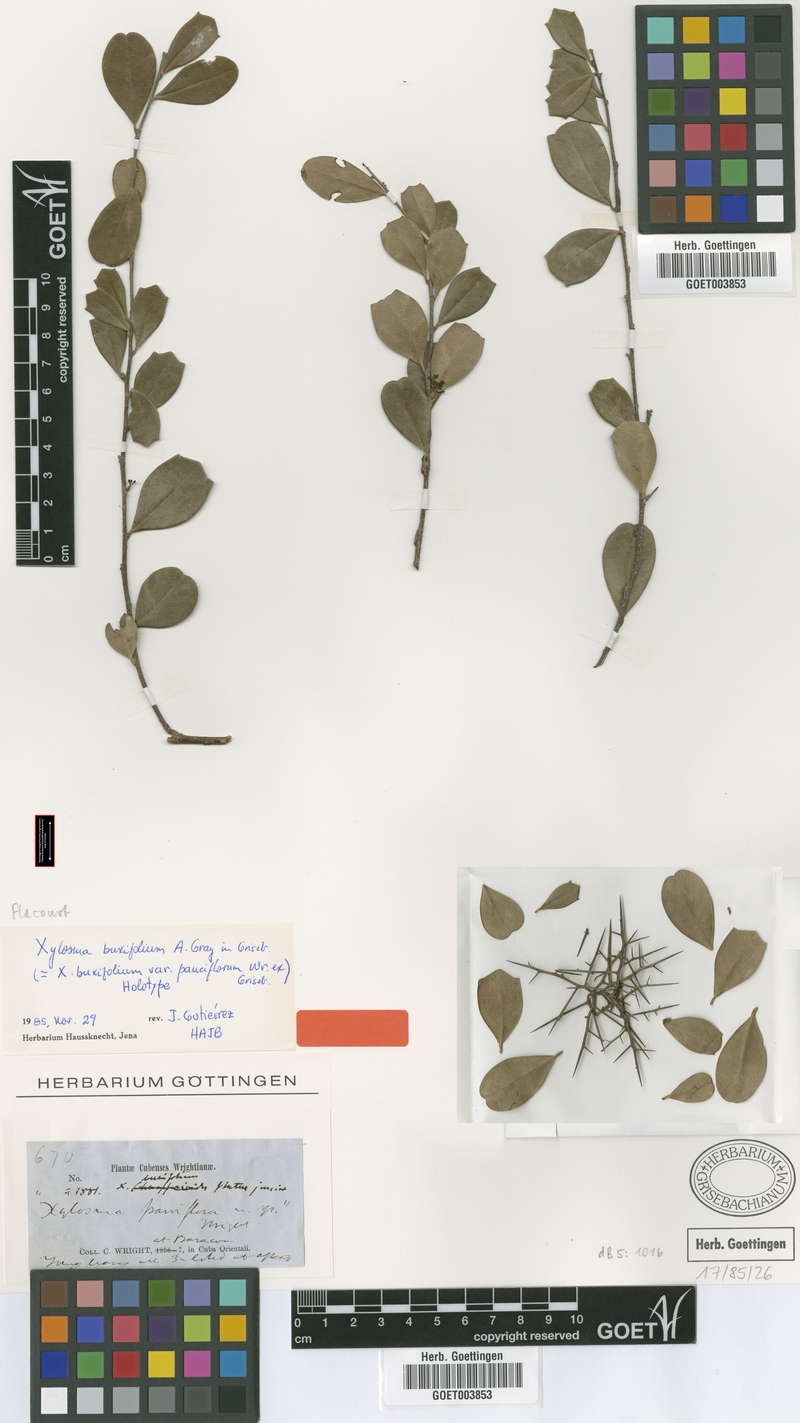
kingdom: Plantae
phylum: Tracheophyta
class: Magnoliopsida
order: Malpighiales
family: Salicaceae
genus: Xylosma
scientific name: Xylosma buxifolia
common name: Cockspur
